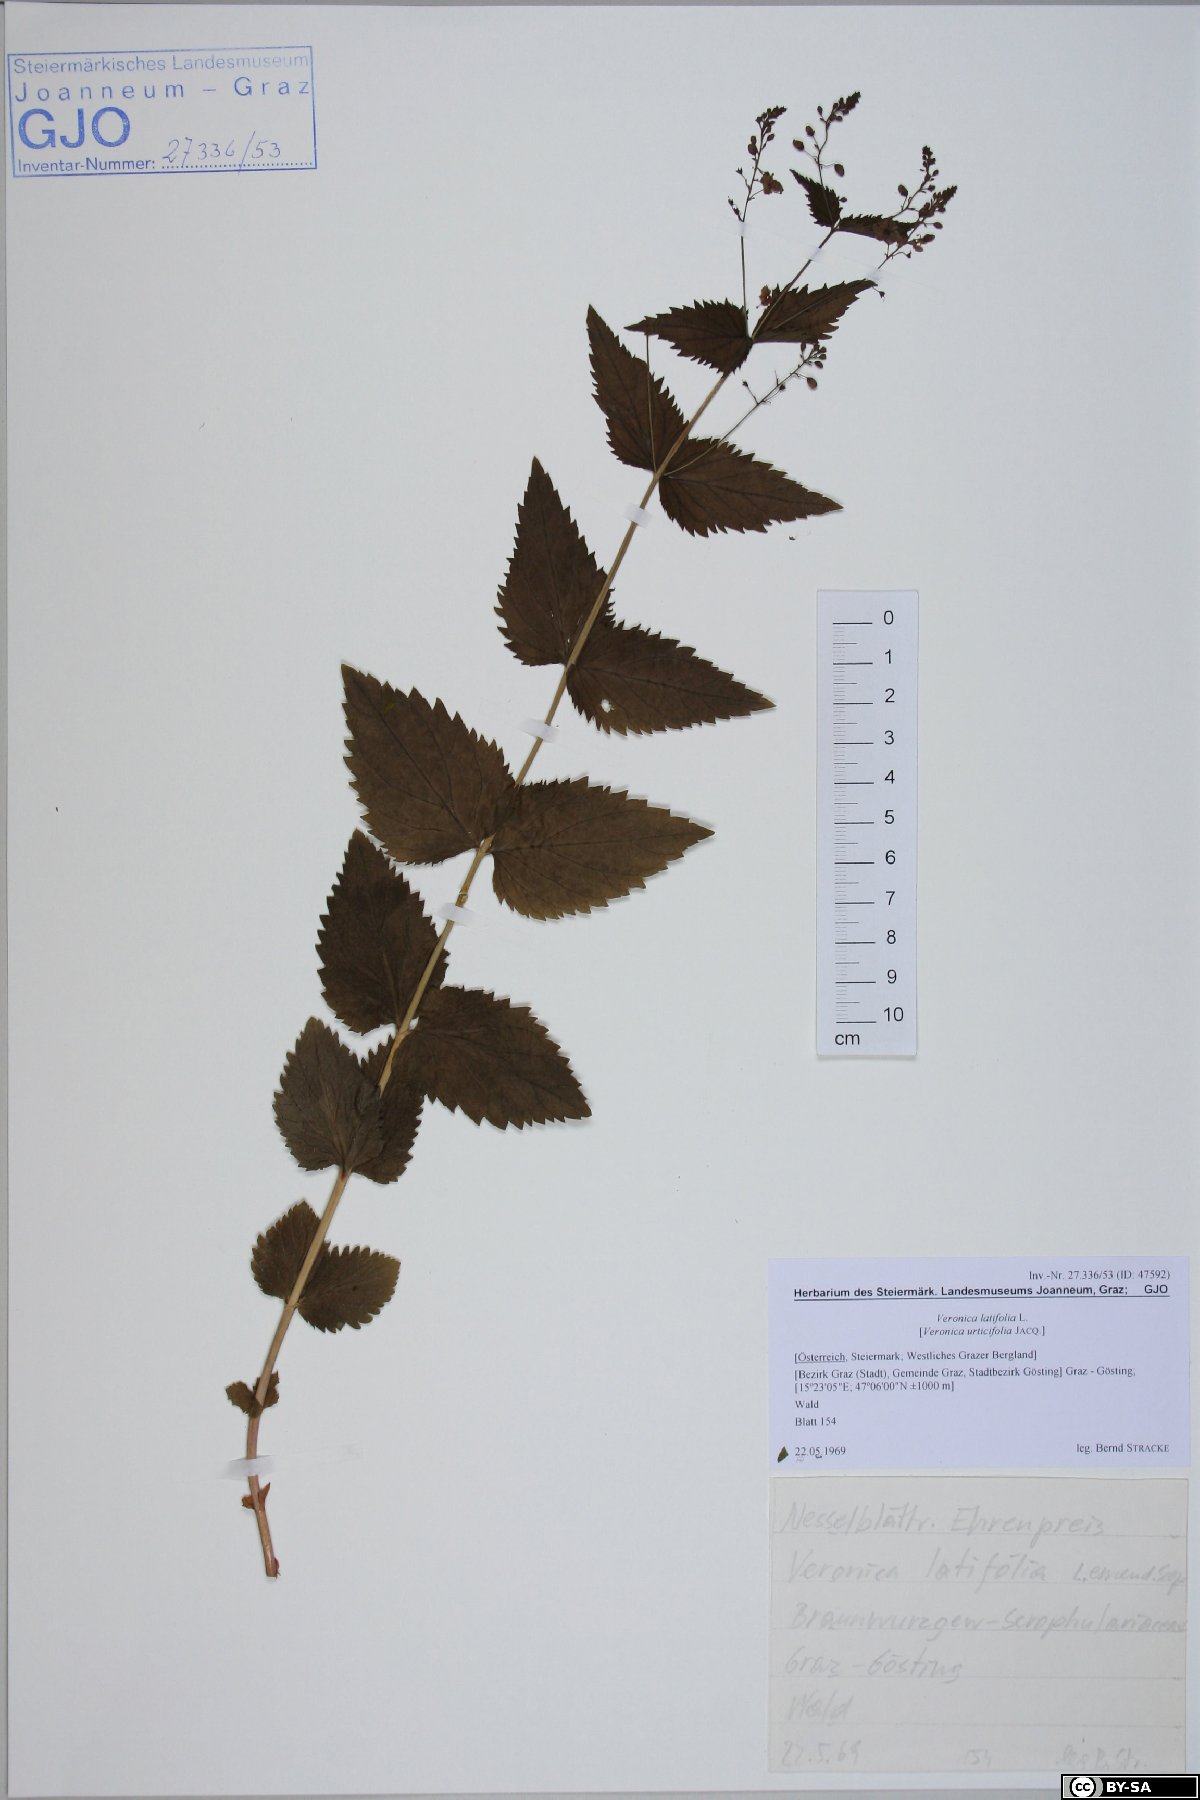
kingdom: Plantae
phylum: Tracheophyta
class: Magnoliopsida
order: Lamiales
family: Plantaginaceae
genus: Veronica
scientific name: Veronica teucrium
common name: Large speedwell
